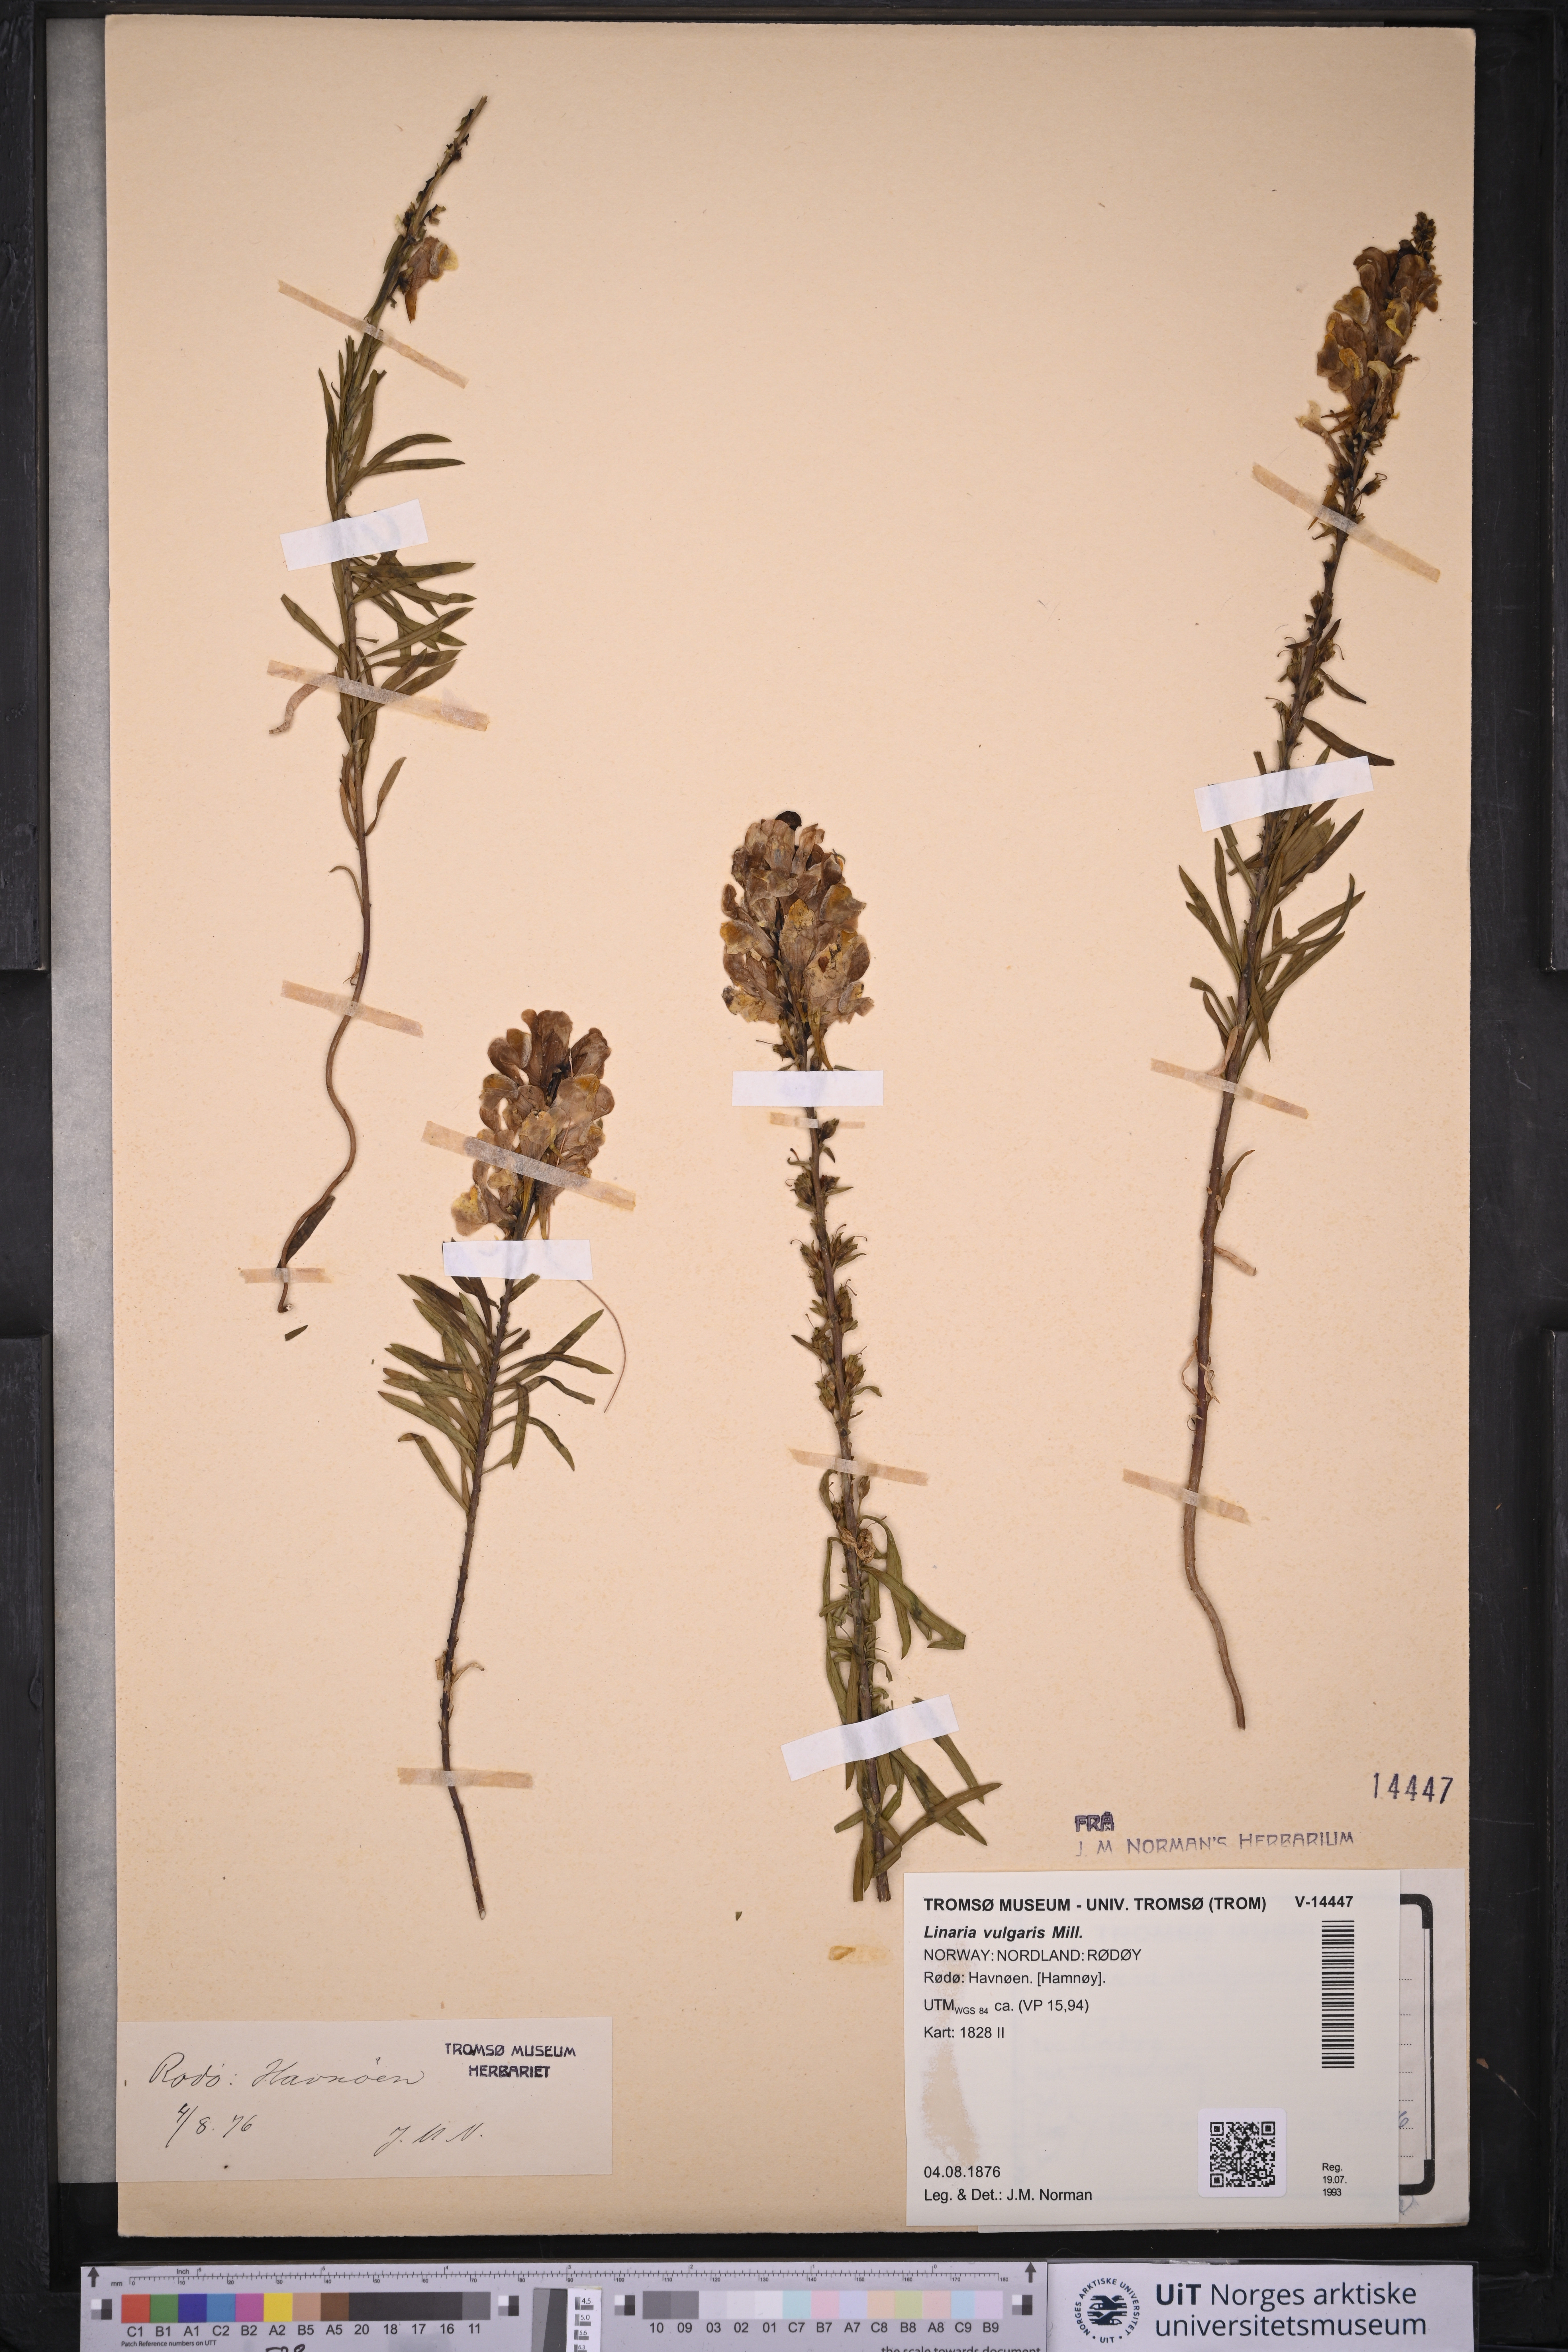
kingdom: Plantae
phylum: Tracheophyta
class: Magnoliopsida
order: Lamiales
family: Plantaginaceae
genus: Linaria
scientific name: Linaria vulgaris
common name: Butter and eggs
